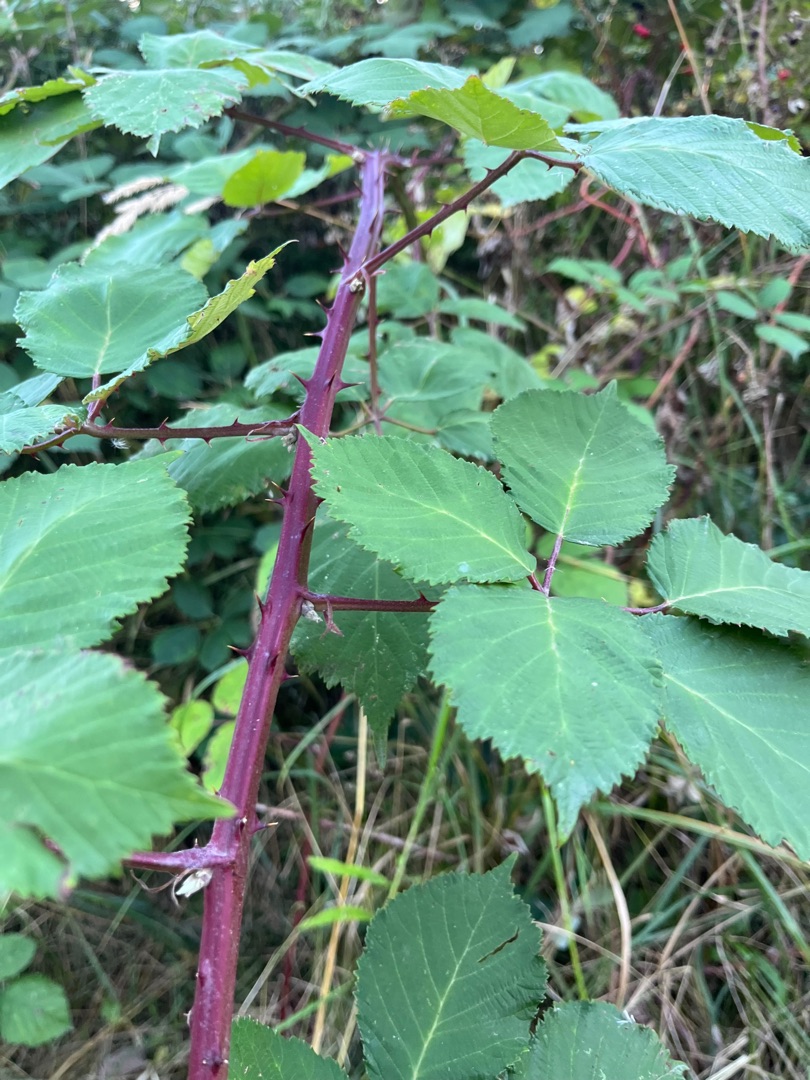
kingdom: Plantae
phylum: Tracheophyta
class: Magnoliopsida
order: Rosales
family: Rosaceae
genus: Rubus
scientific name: Rubus armeniacus
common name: Armensk brombær
